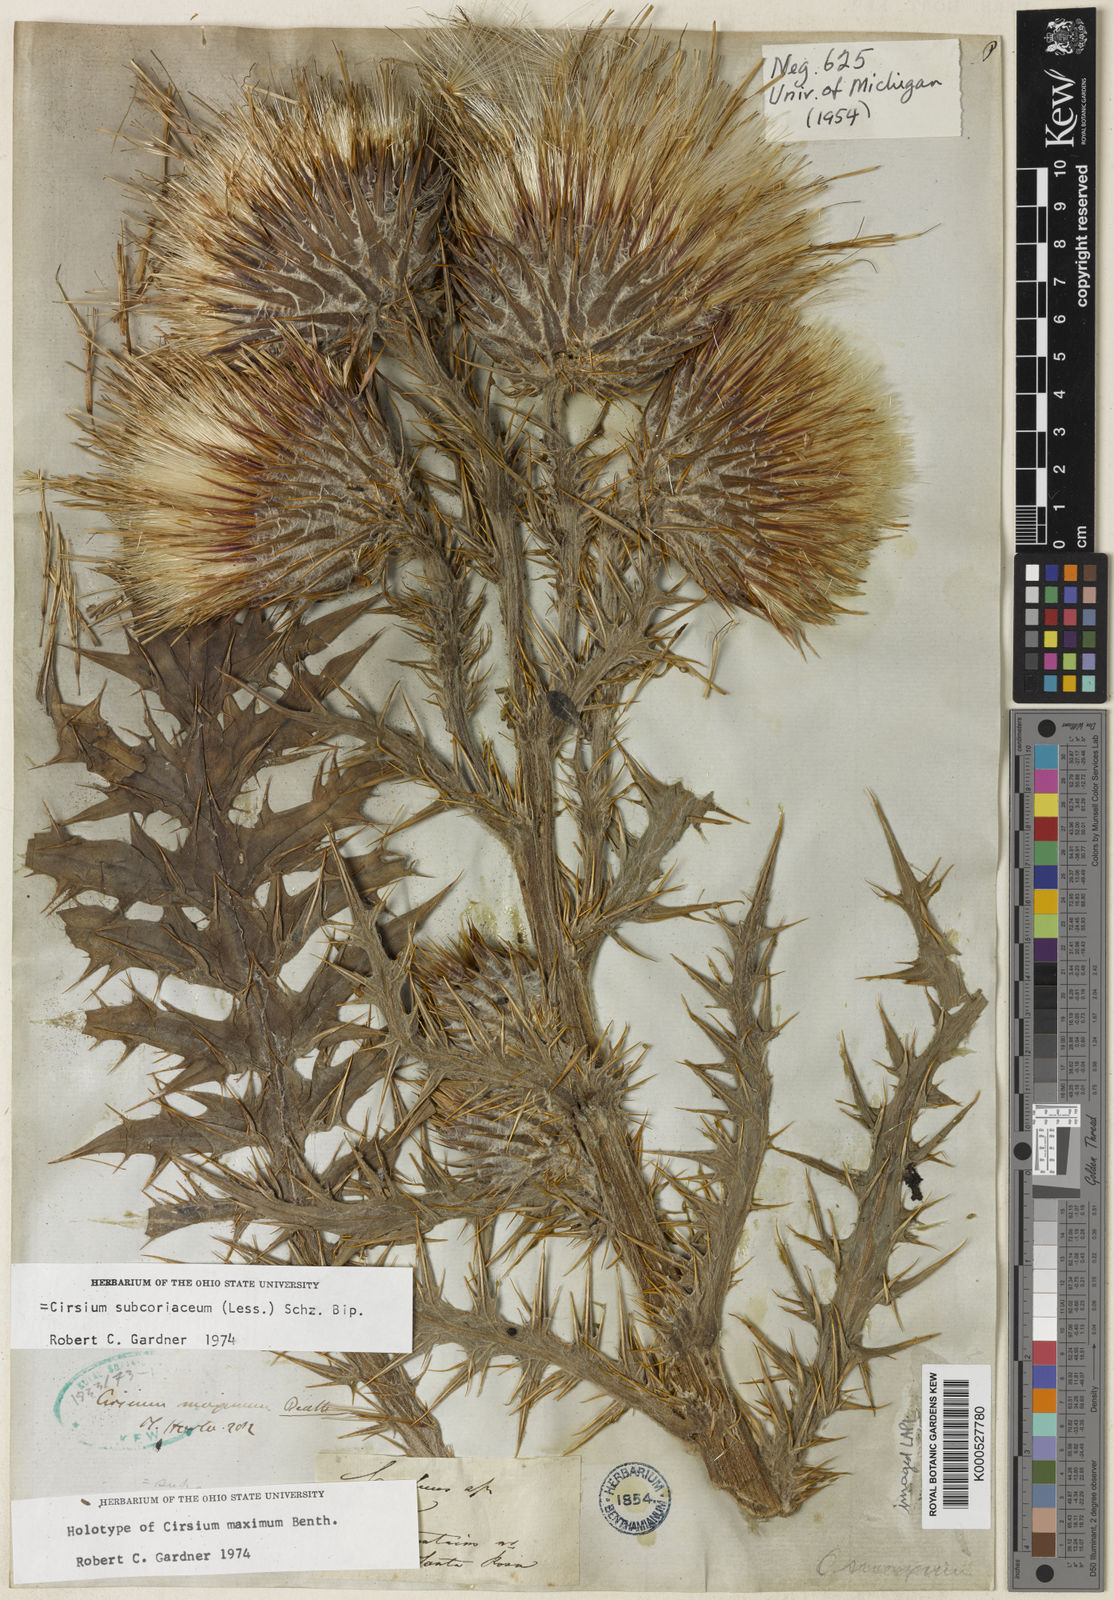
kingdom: Plantae
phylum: Tracheophyta
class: Magnoliopsida
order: Asterales
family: Asteraceae
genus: Cirsium
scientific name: Cirsium subcoriaceum
